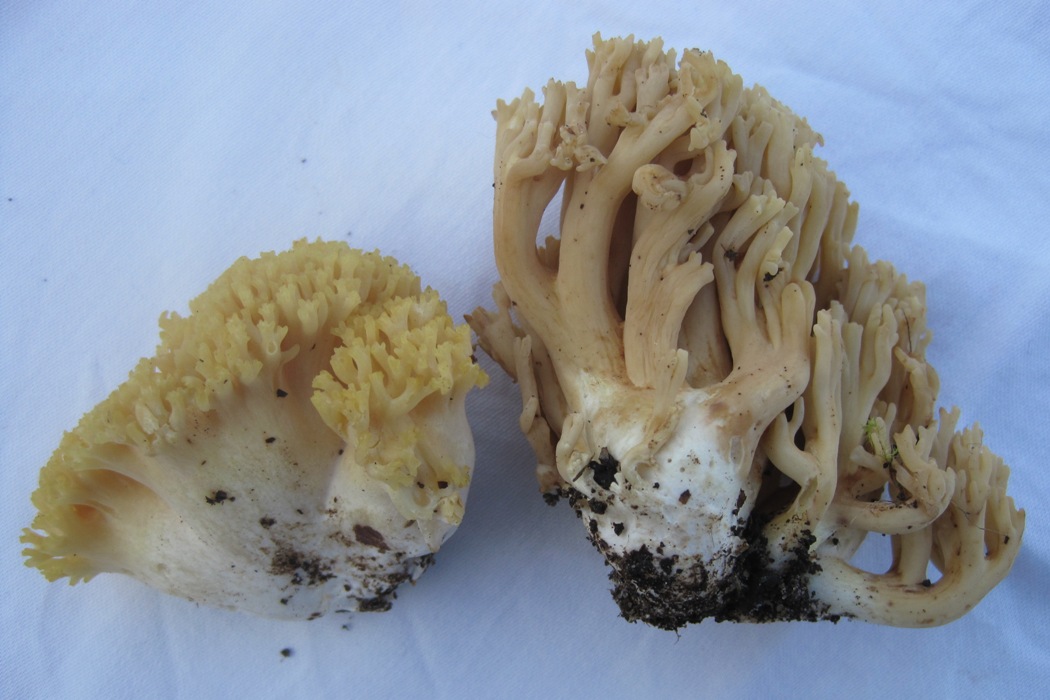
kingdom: Fungi
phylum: Basidiomycota
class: Agaricomycetes
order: Gomphales
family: Gomphaceae
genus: Ramaria
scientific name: Ramaria krieglsteineri
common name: smalsporet koralsvamp
